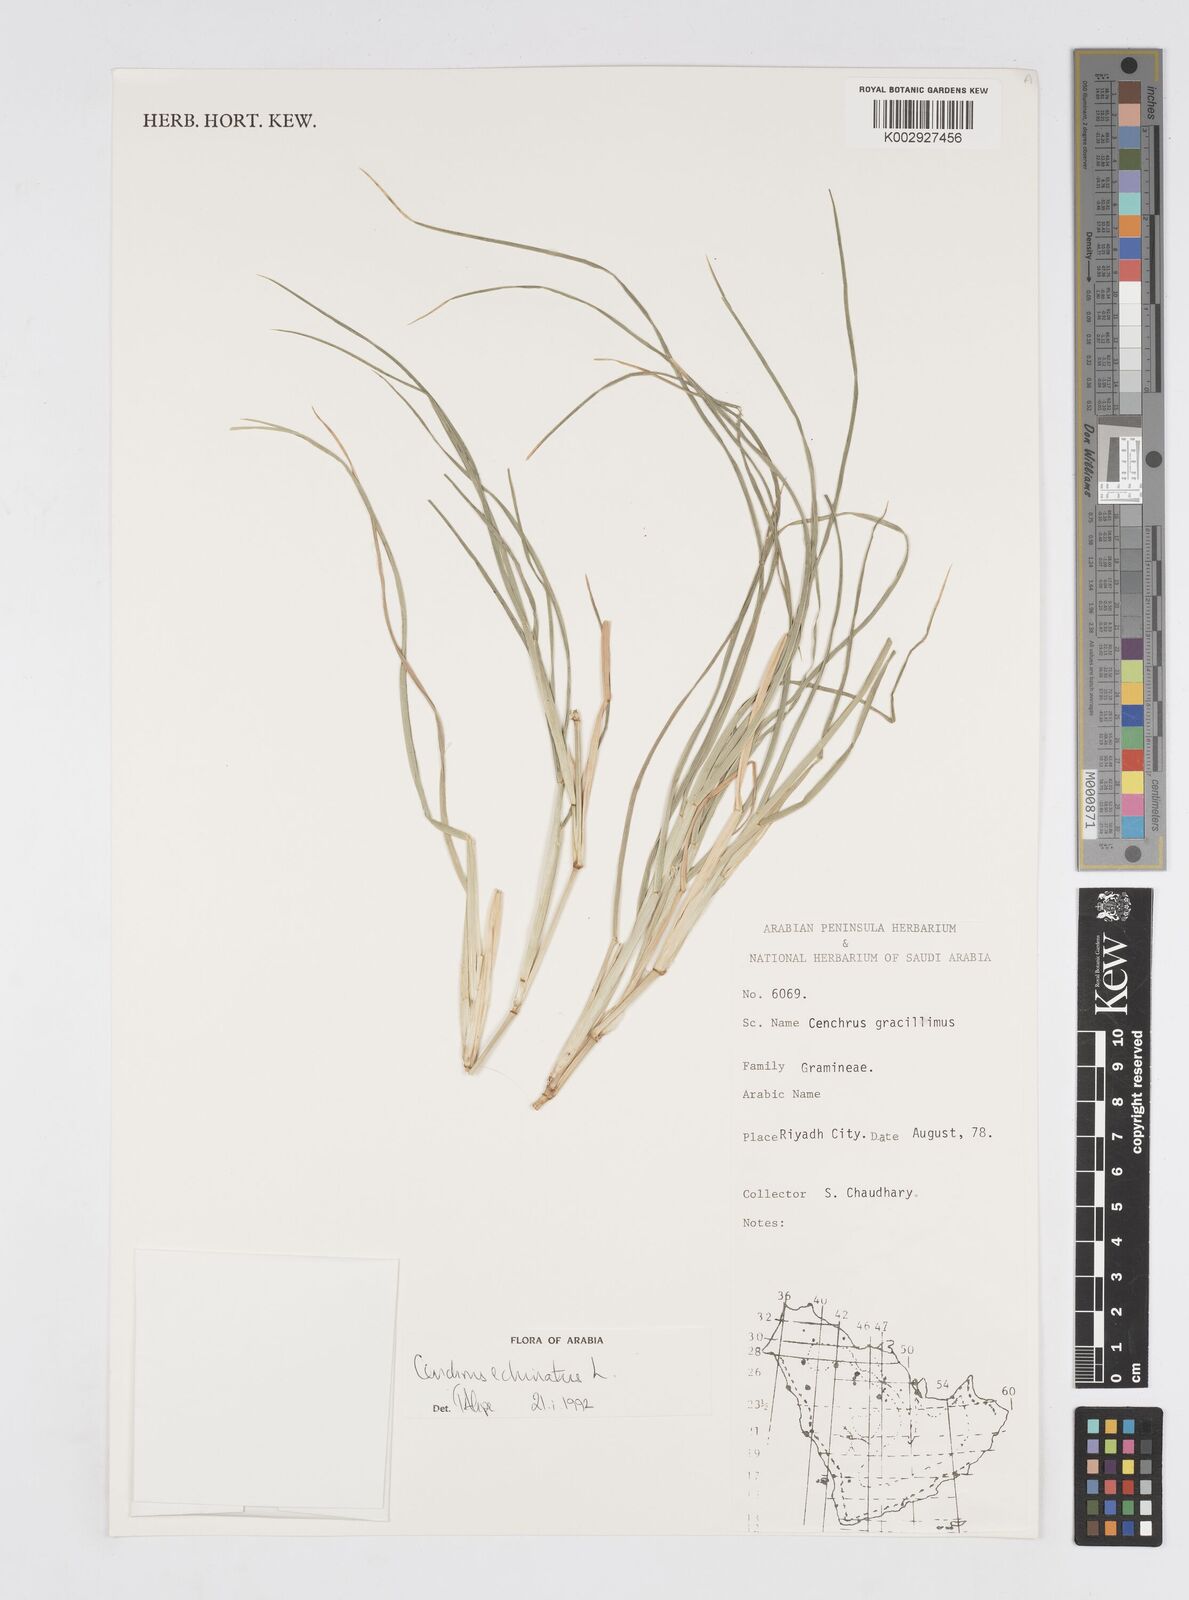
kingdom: Plantae
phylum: Tracheophyta
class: Liliopsida
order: Poales
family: Poaceae
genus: Cenchrus
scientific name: Cenchrus echinatus
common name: Southern sandbur
